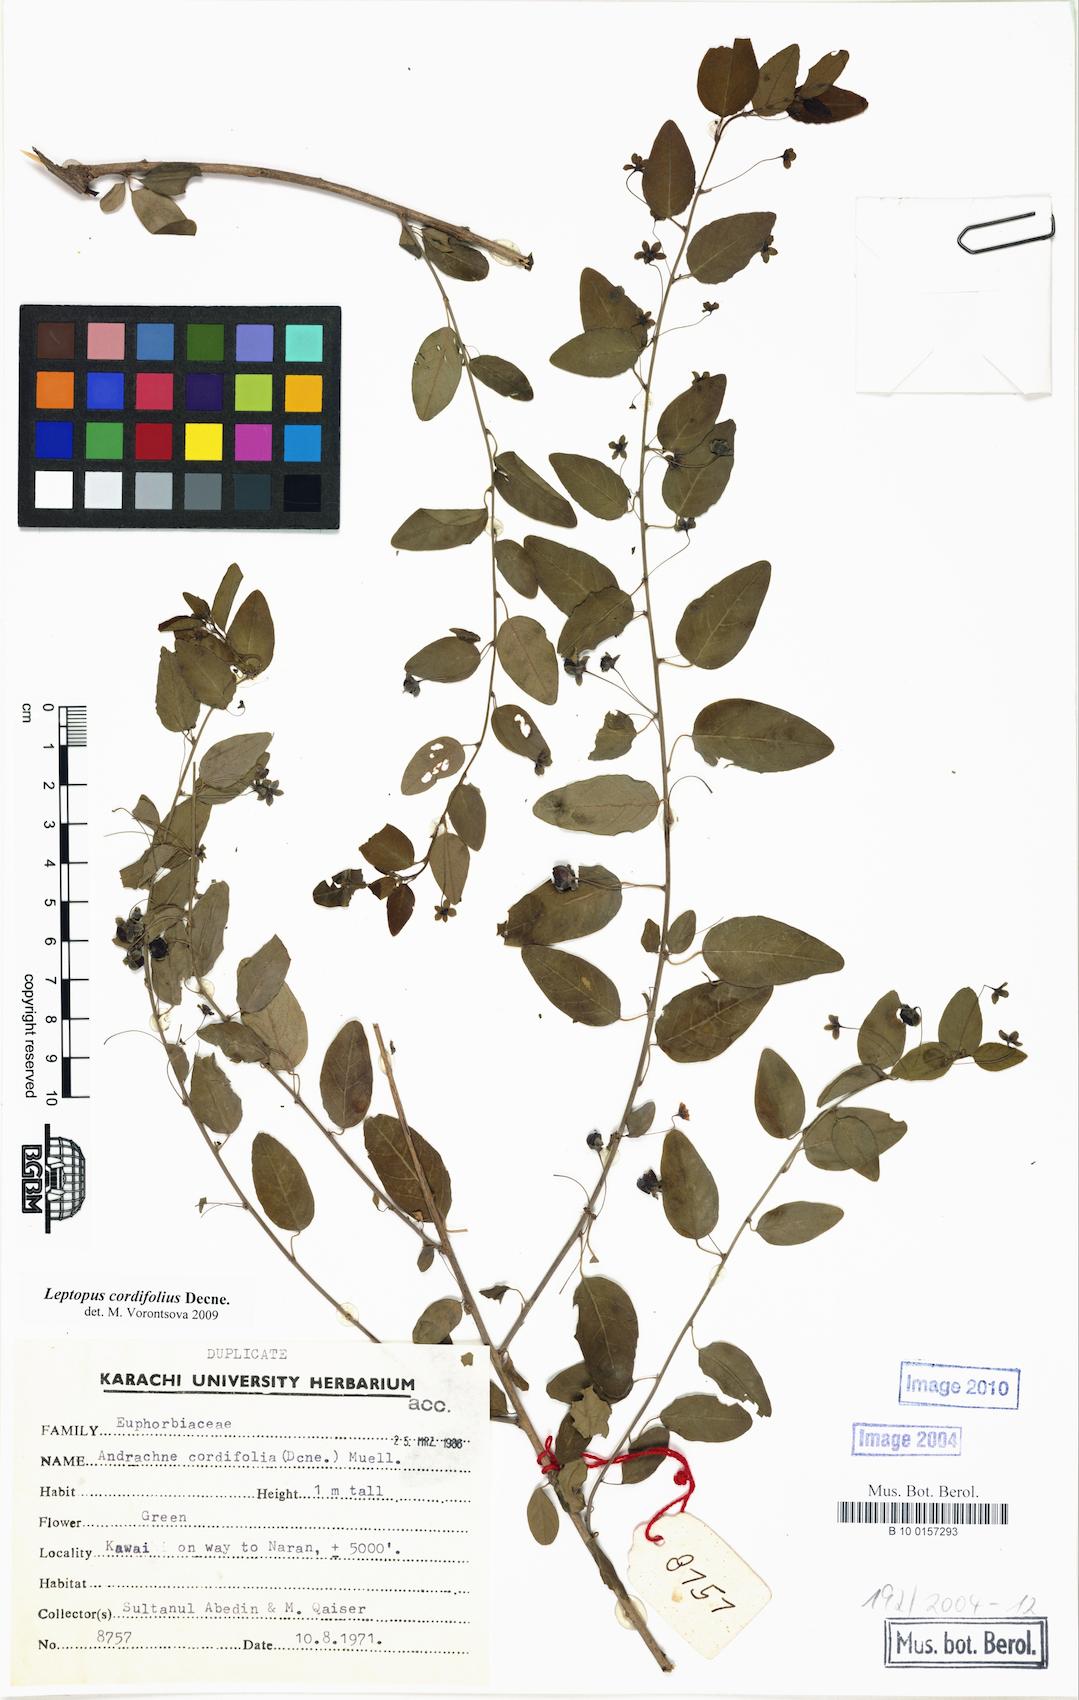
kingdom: Plantae
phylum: Tracheophyta
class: Magnoliopsida
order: Malpighiales
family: Phyllanthaceae
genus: Leptopus
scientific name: Leptopus cordifolius
